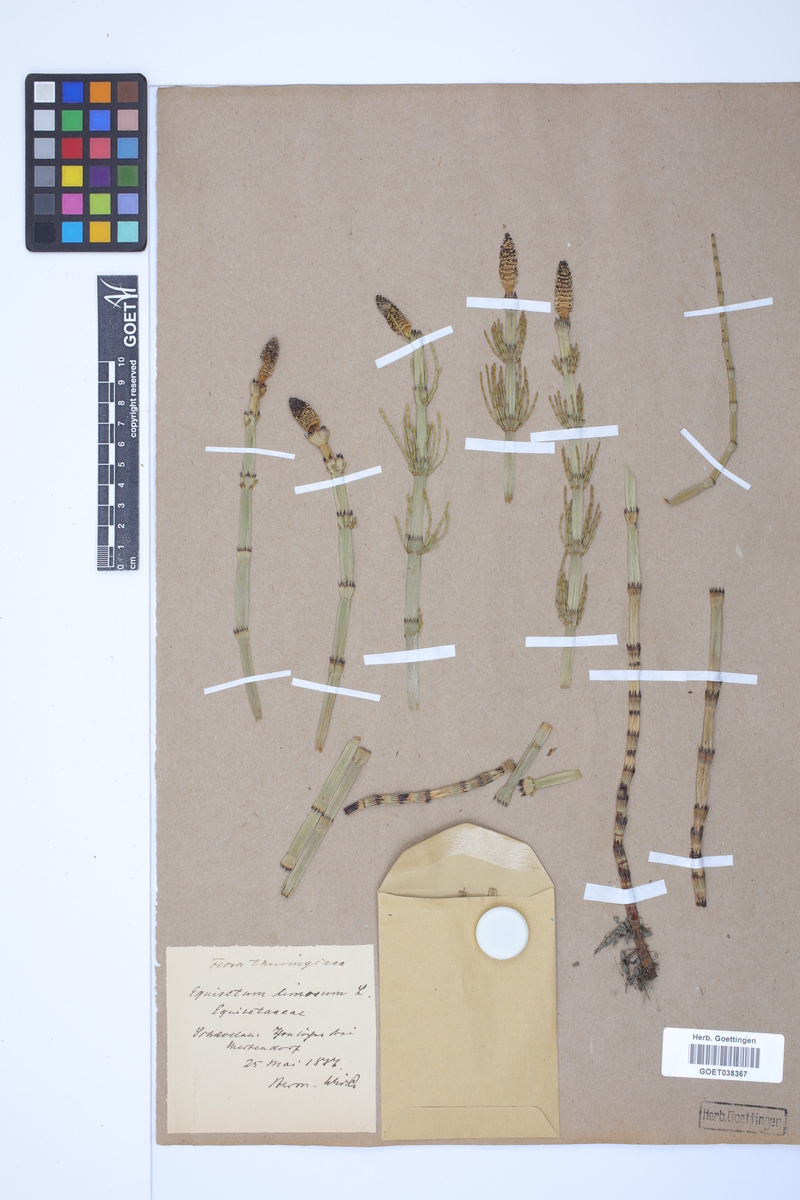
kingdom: Plantae
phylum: Tracheophyta
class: Polypodiopsida
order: Equisetales
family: Equisetaceae
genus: Equisetum
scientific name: Equisetum fluviatile
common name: Water horsetail
